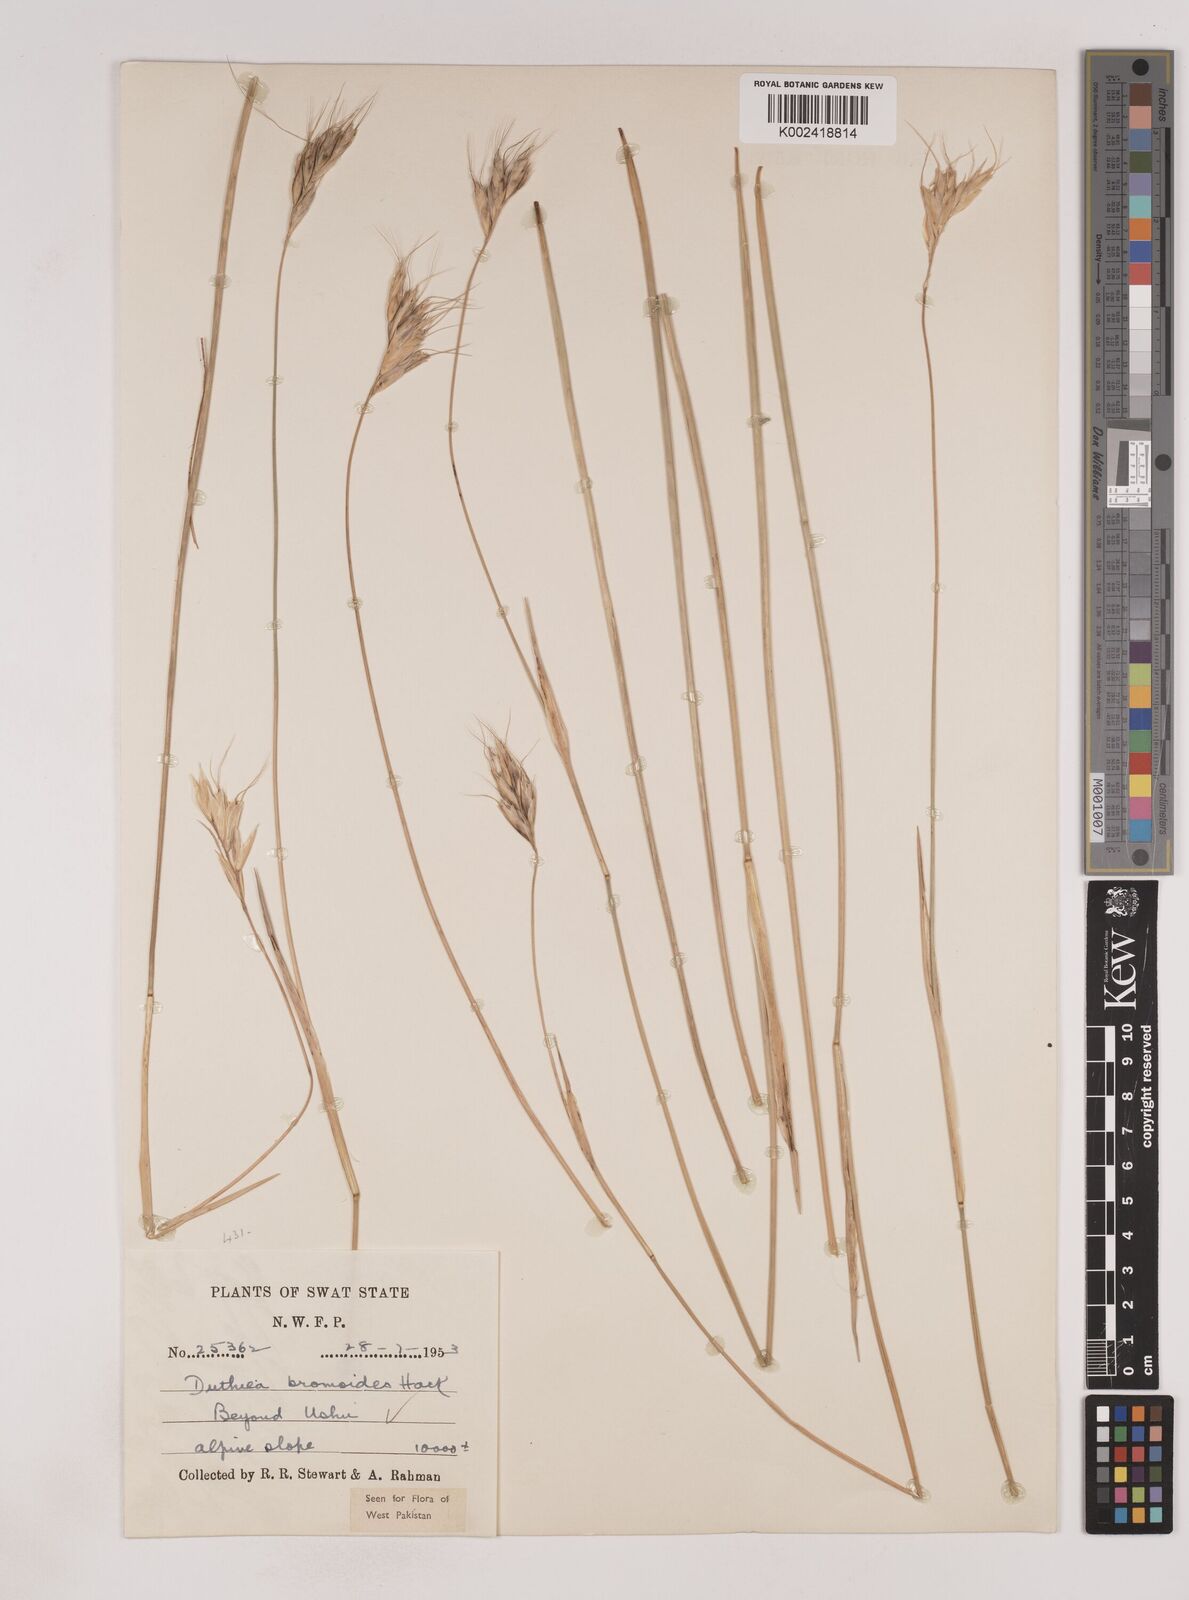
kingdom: Plantae
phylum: Tracheophyta
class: Liliopsida
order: Poales
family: Poaceae
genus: Duthiea
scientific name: Duthiea bromoides
